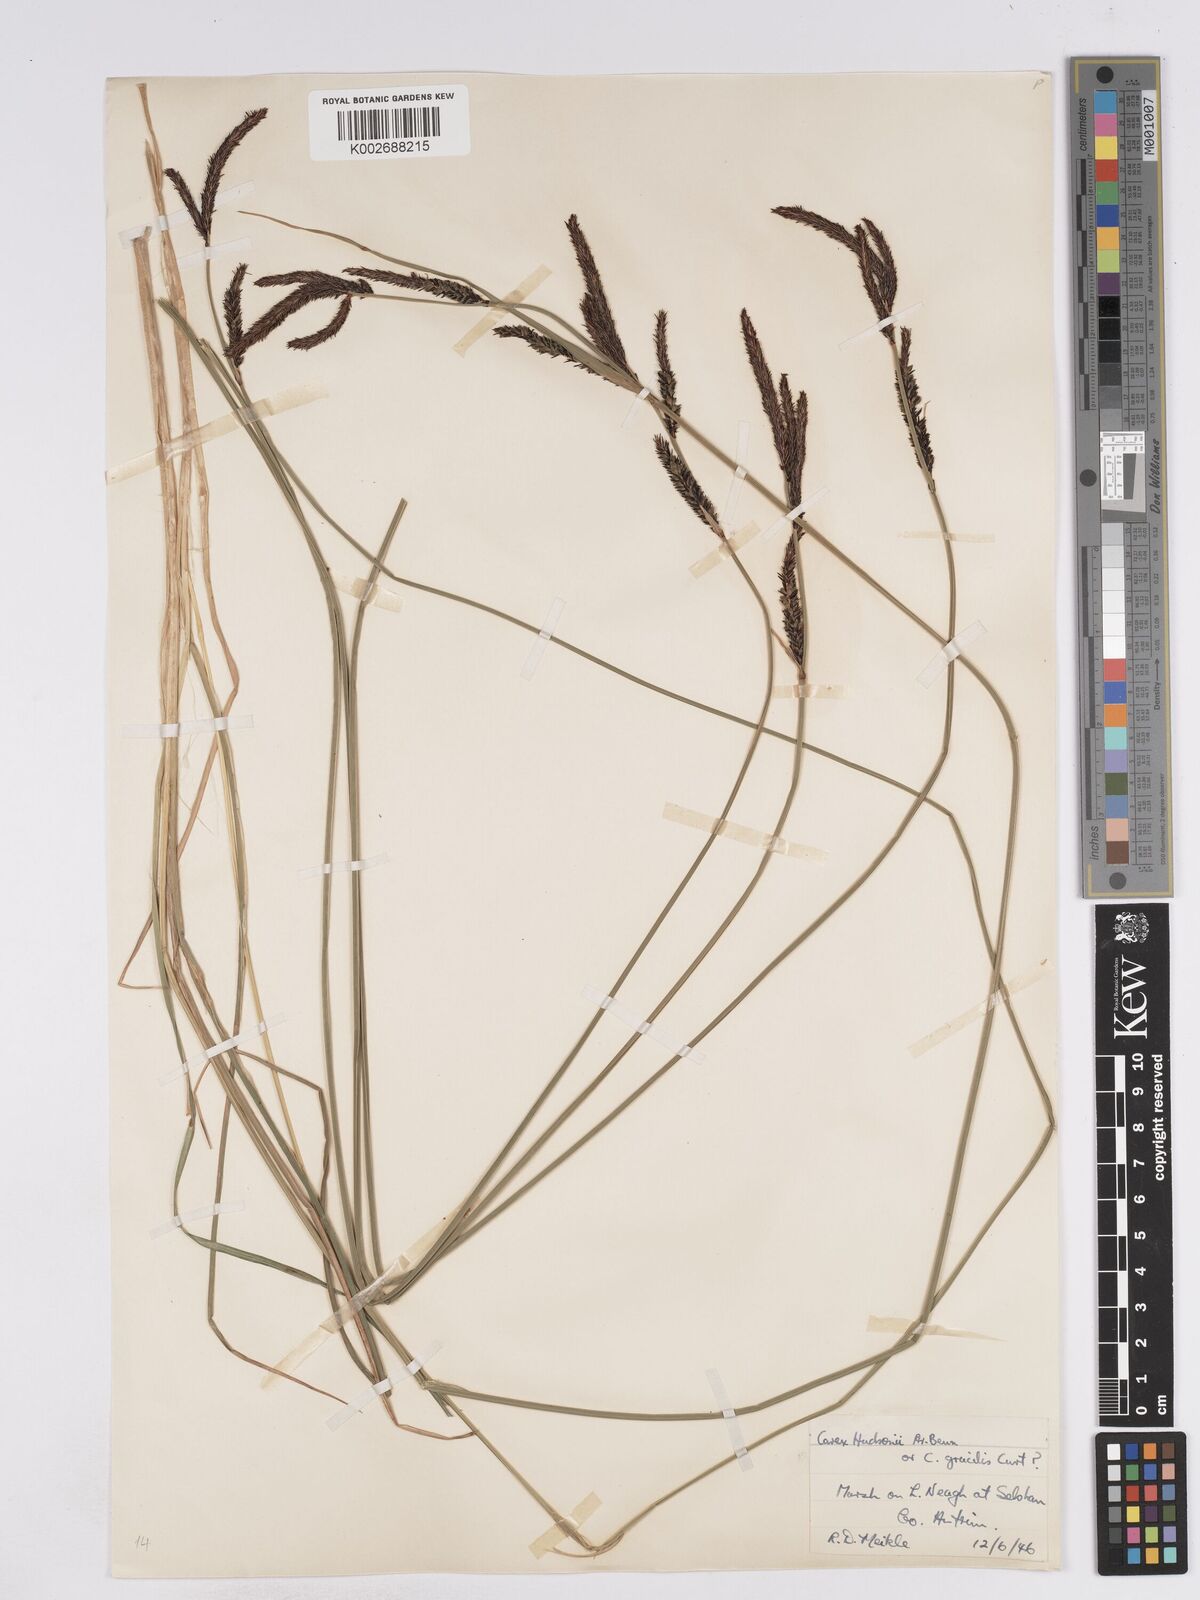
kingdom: Plantae
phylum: Tracheophyta
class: Liliopsida
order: Poales
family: Cyperaceae
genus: Carex
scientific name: Carex elata
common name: Tufted sedge
